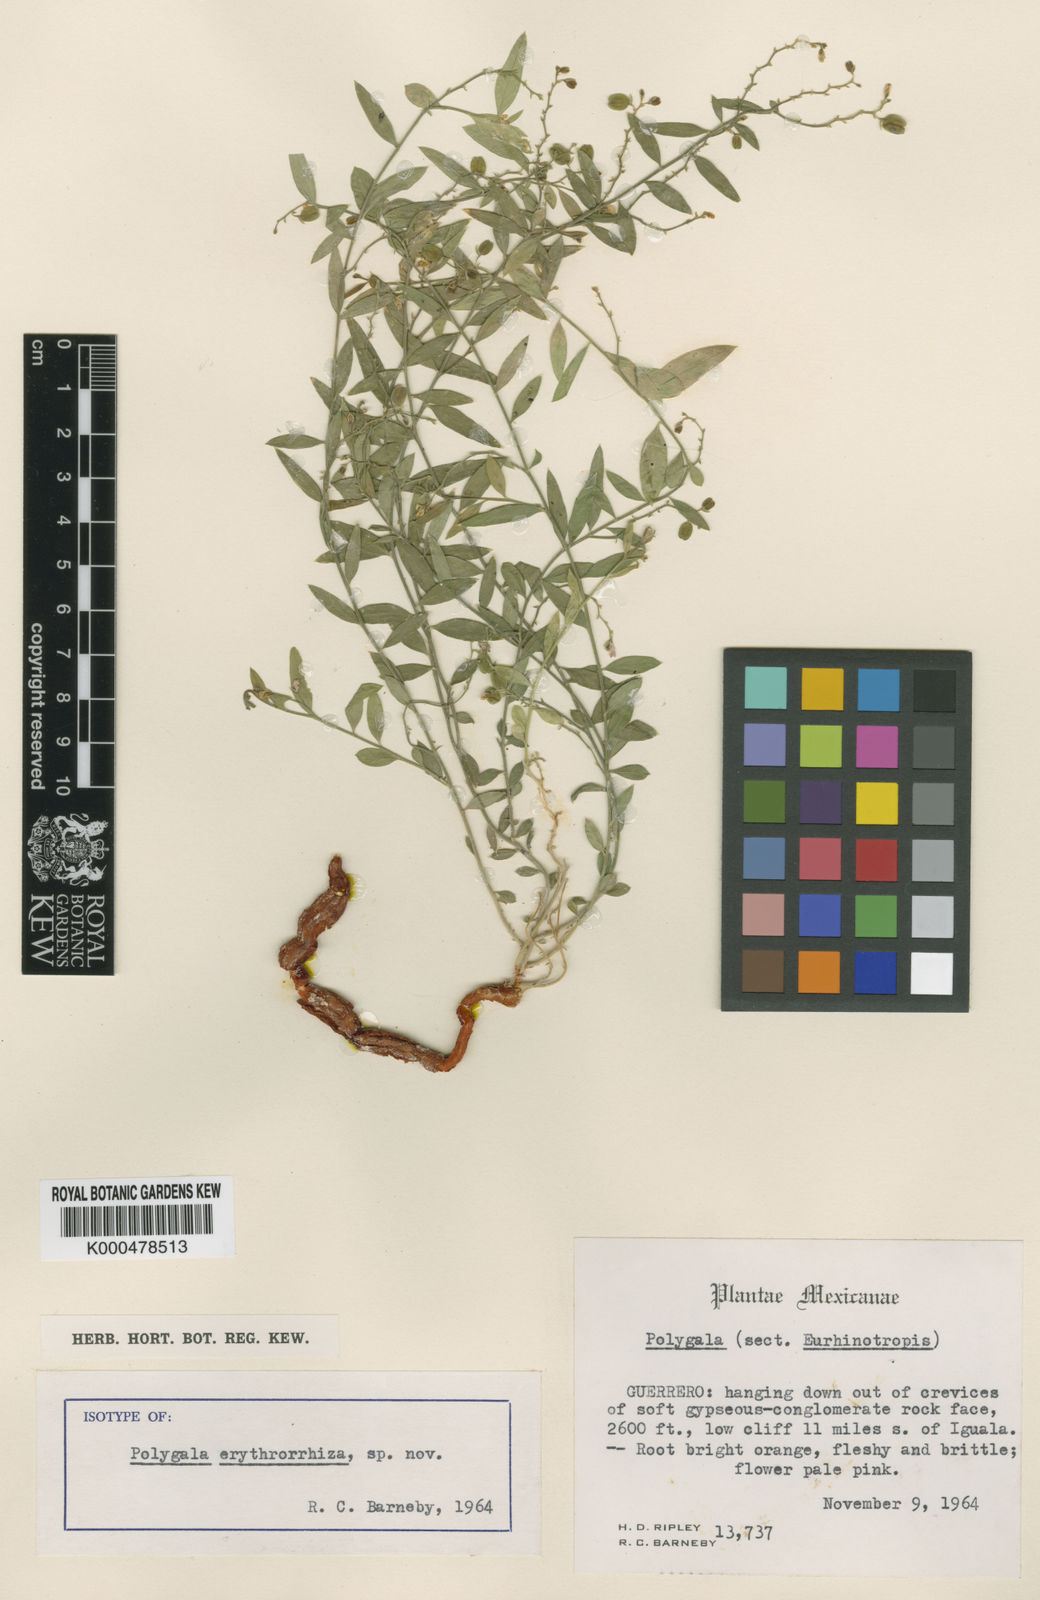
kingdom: Plantae
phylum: Tracheophyta
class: Magnoliopsida
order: Fabales
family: Polygalaceae
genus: Rhinotropis
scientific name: Rhinotropis
